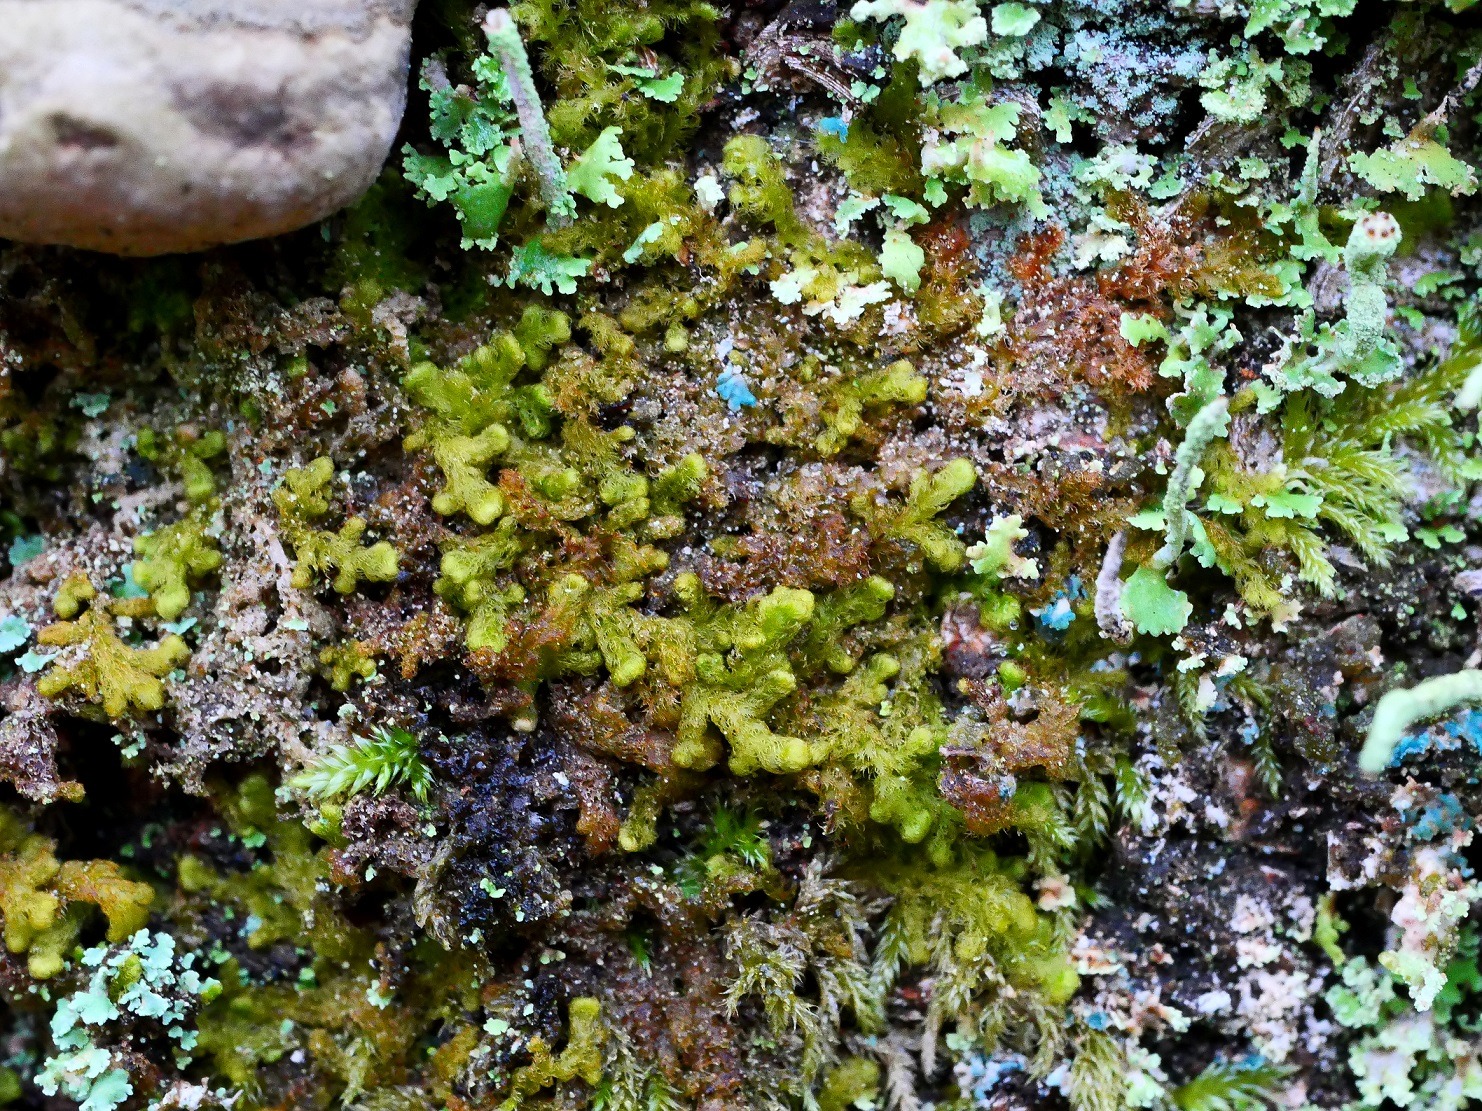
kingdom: Plantae
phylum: Marchantiophyta
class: Jungermanniopsida
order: Ptilidiales
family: Ptilidiaceae
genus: Ptilidium
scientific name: Ptilidium pulcherrimum
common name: Stub-frynsemos
